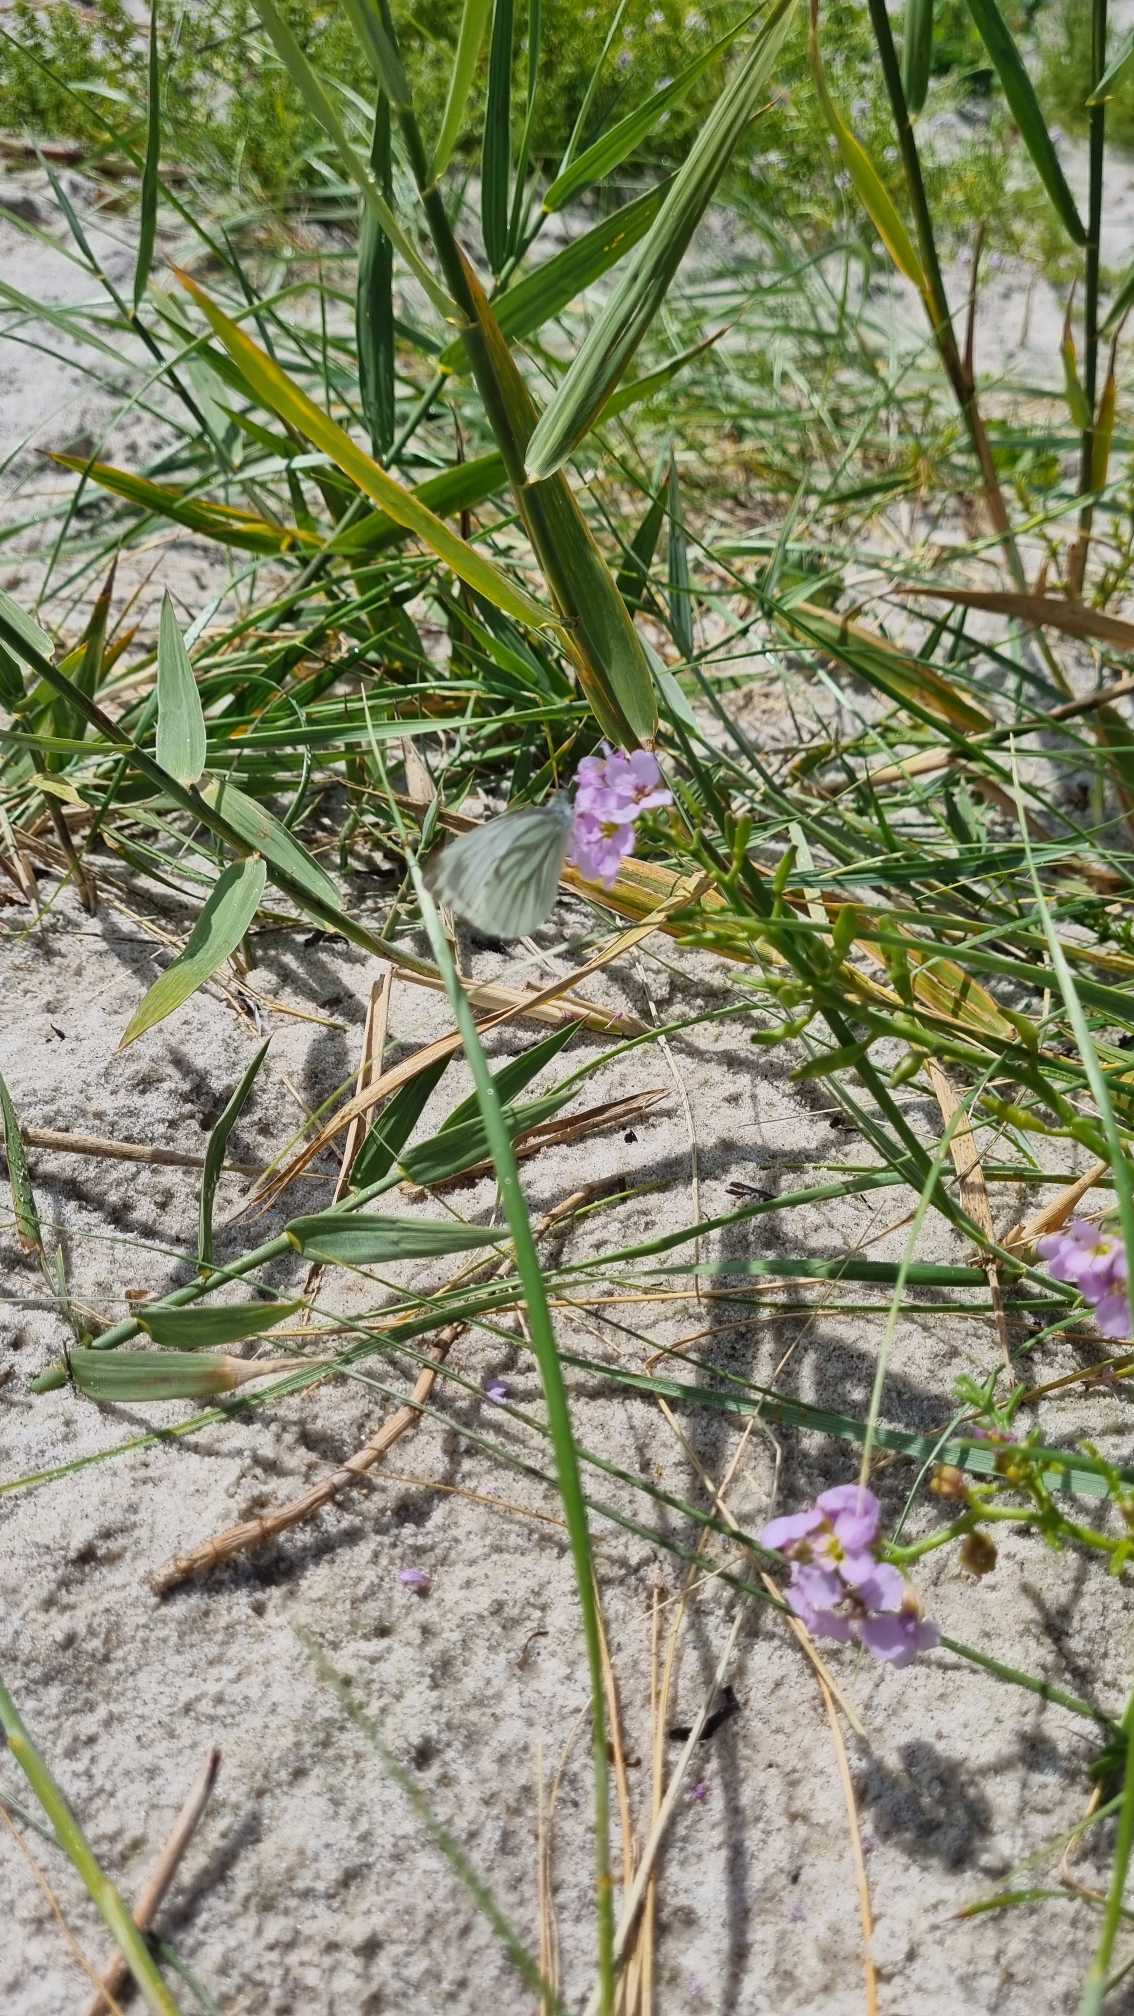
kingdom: Animalia
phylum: Arthropoda
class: Insecta
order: Lepidoptera
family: Pieridae
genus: Pieris
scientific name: Pieris napi
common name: Grønåret kålsommerfugl
